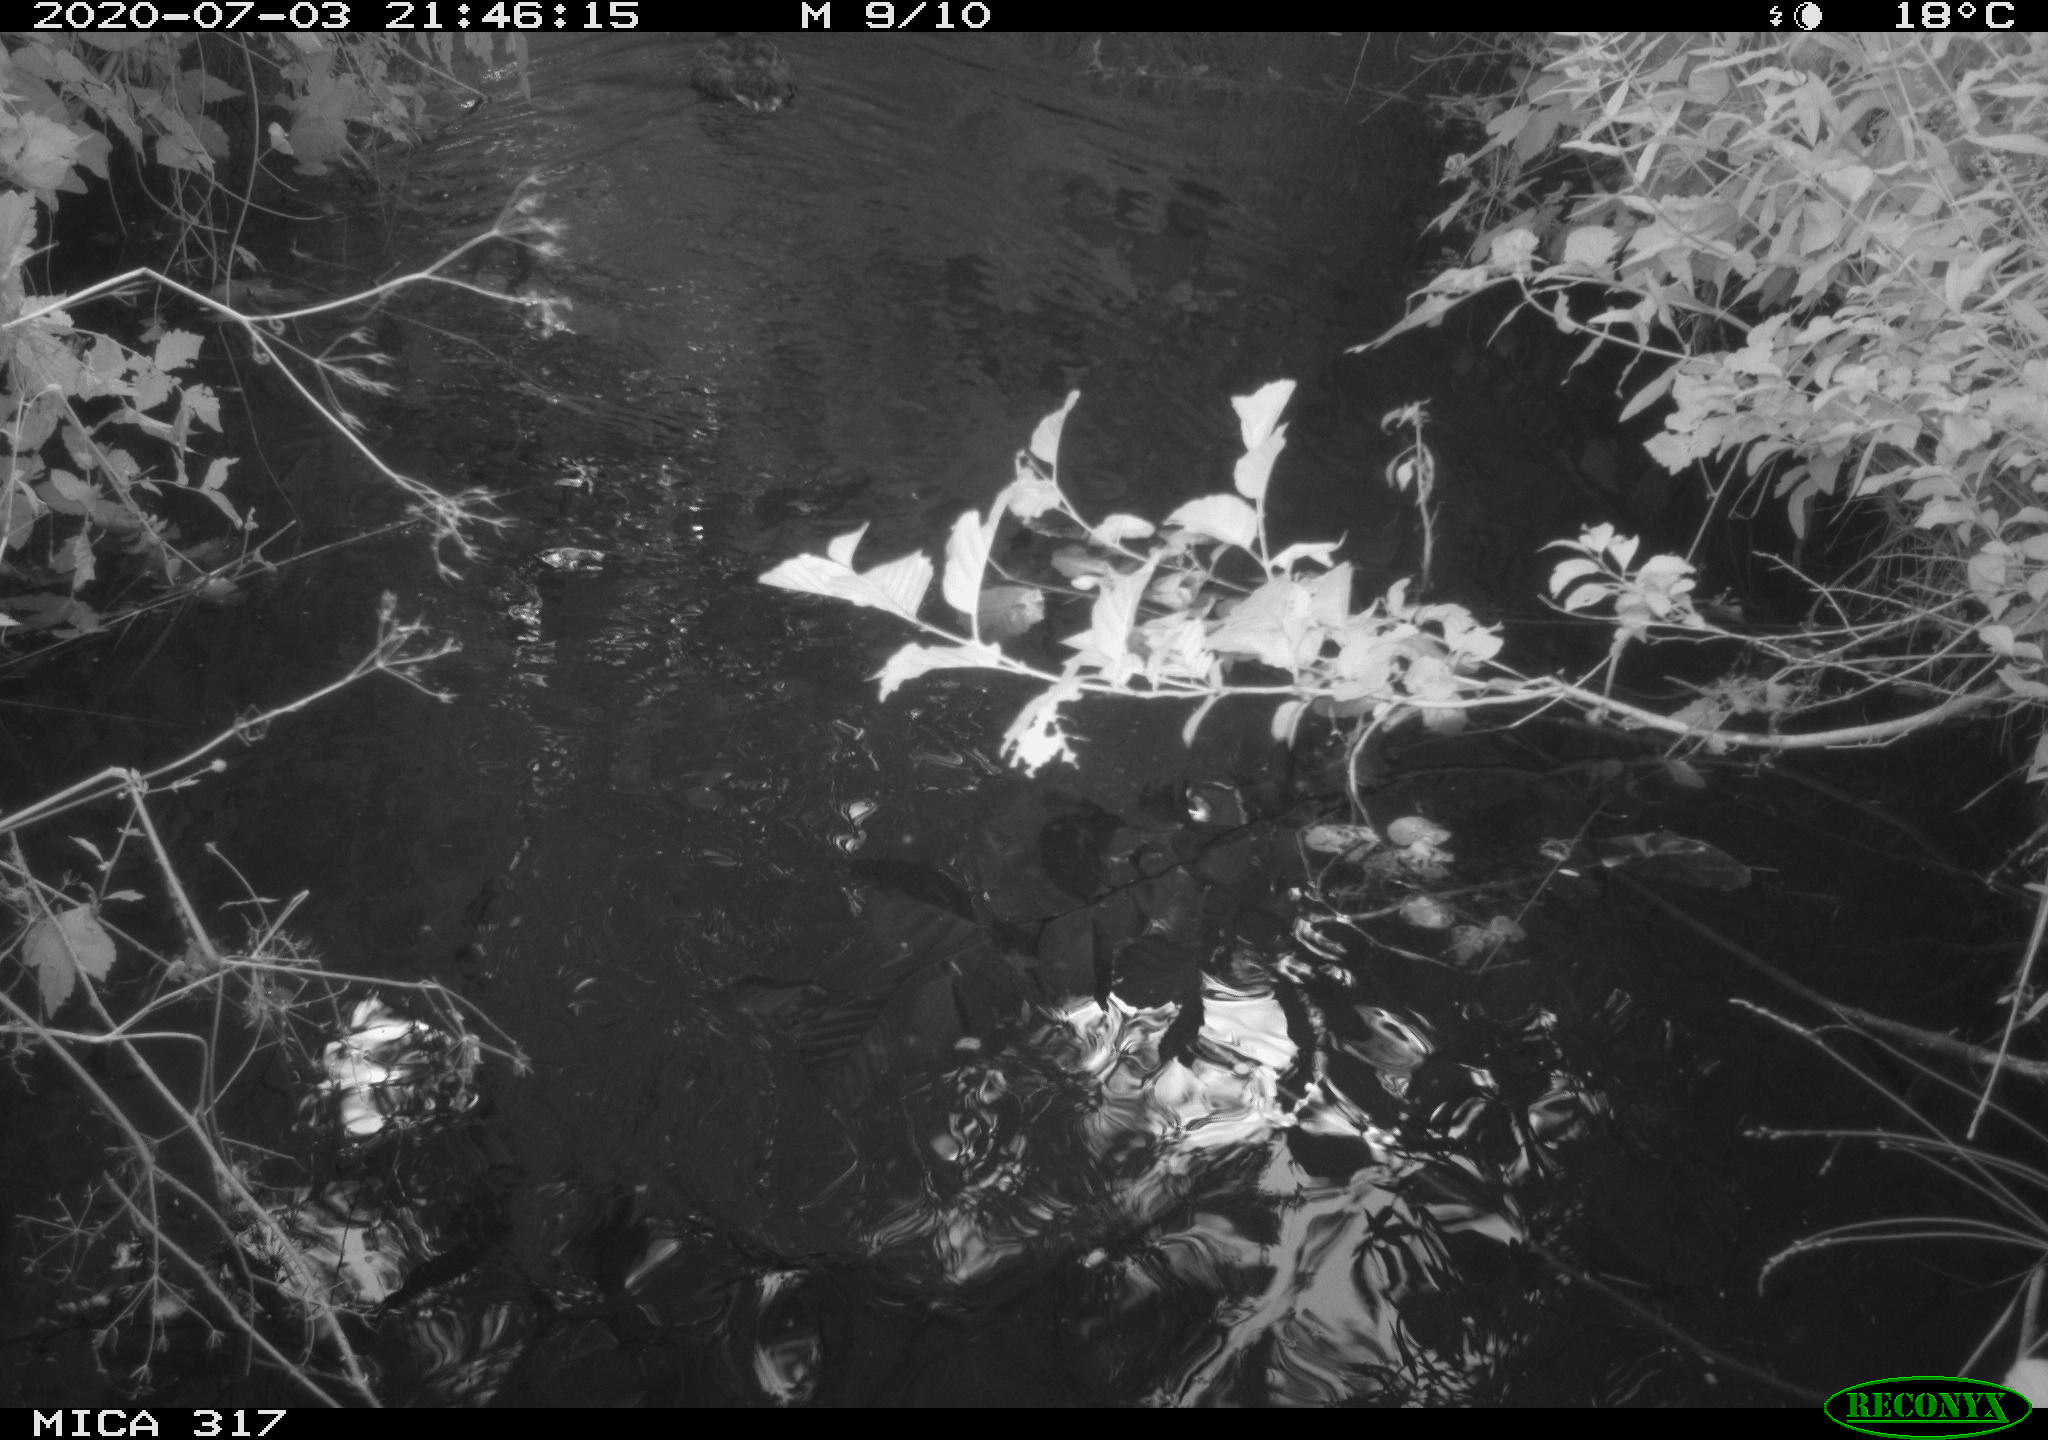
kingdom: Animalia
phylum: Chordata
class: Aves
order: Anseriformes
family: Anatidae
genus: Anas
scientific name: Anas platyrhynchos
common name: Mallard
